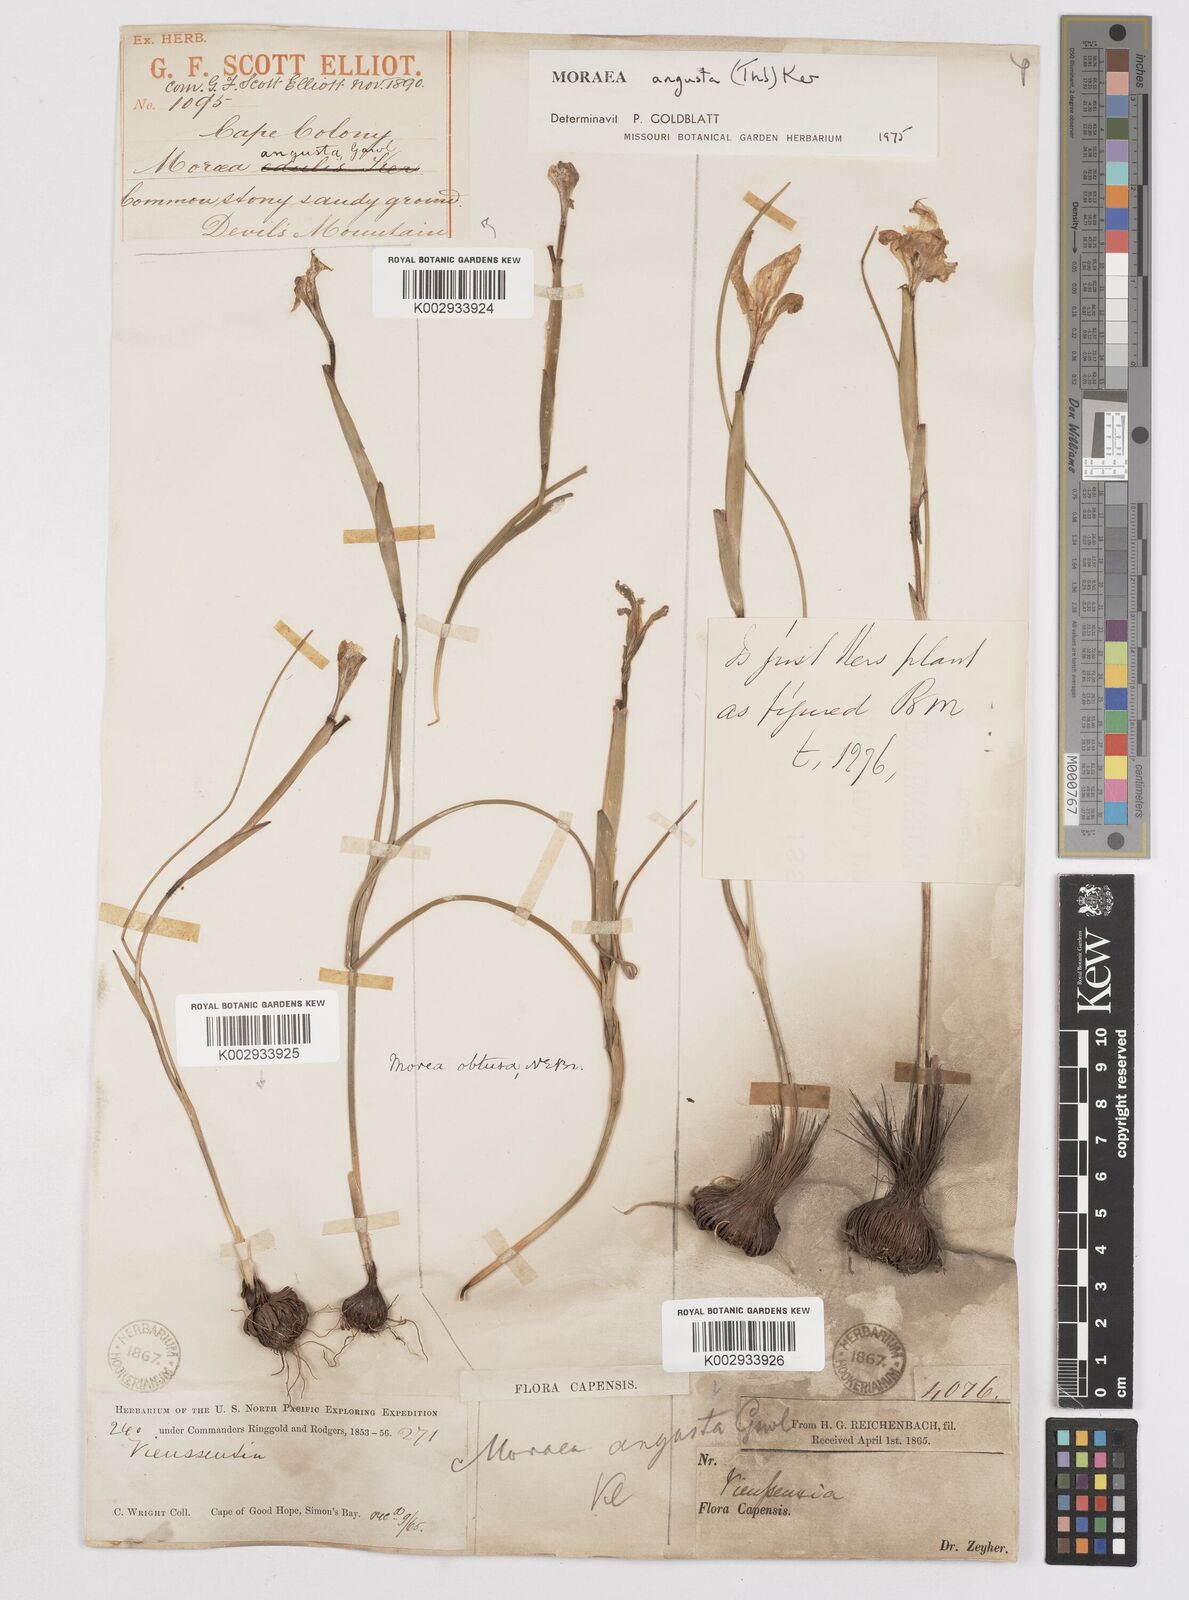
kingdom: Plantae
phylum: Tracheophyta
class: Liliopsida
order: Asparagales
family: Iridaceae
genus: Moraea
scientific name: Moraea angusta
